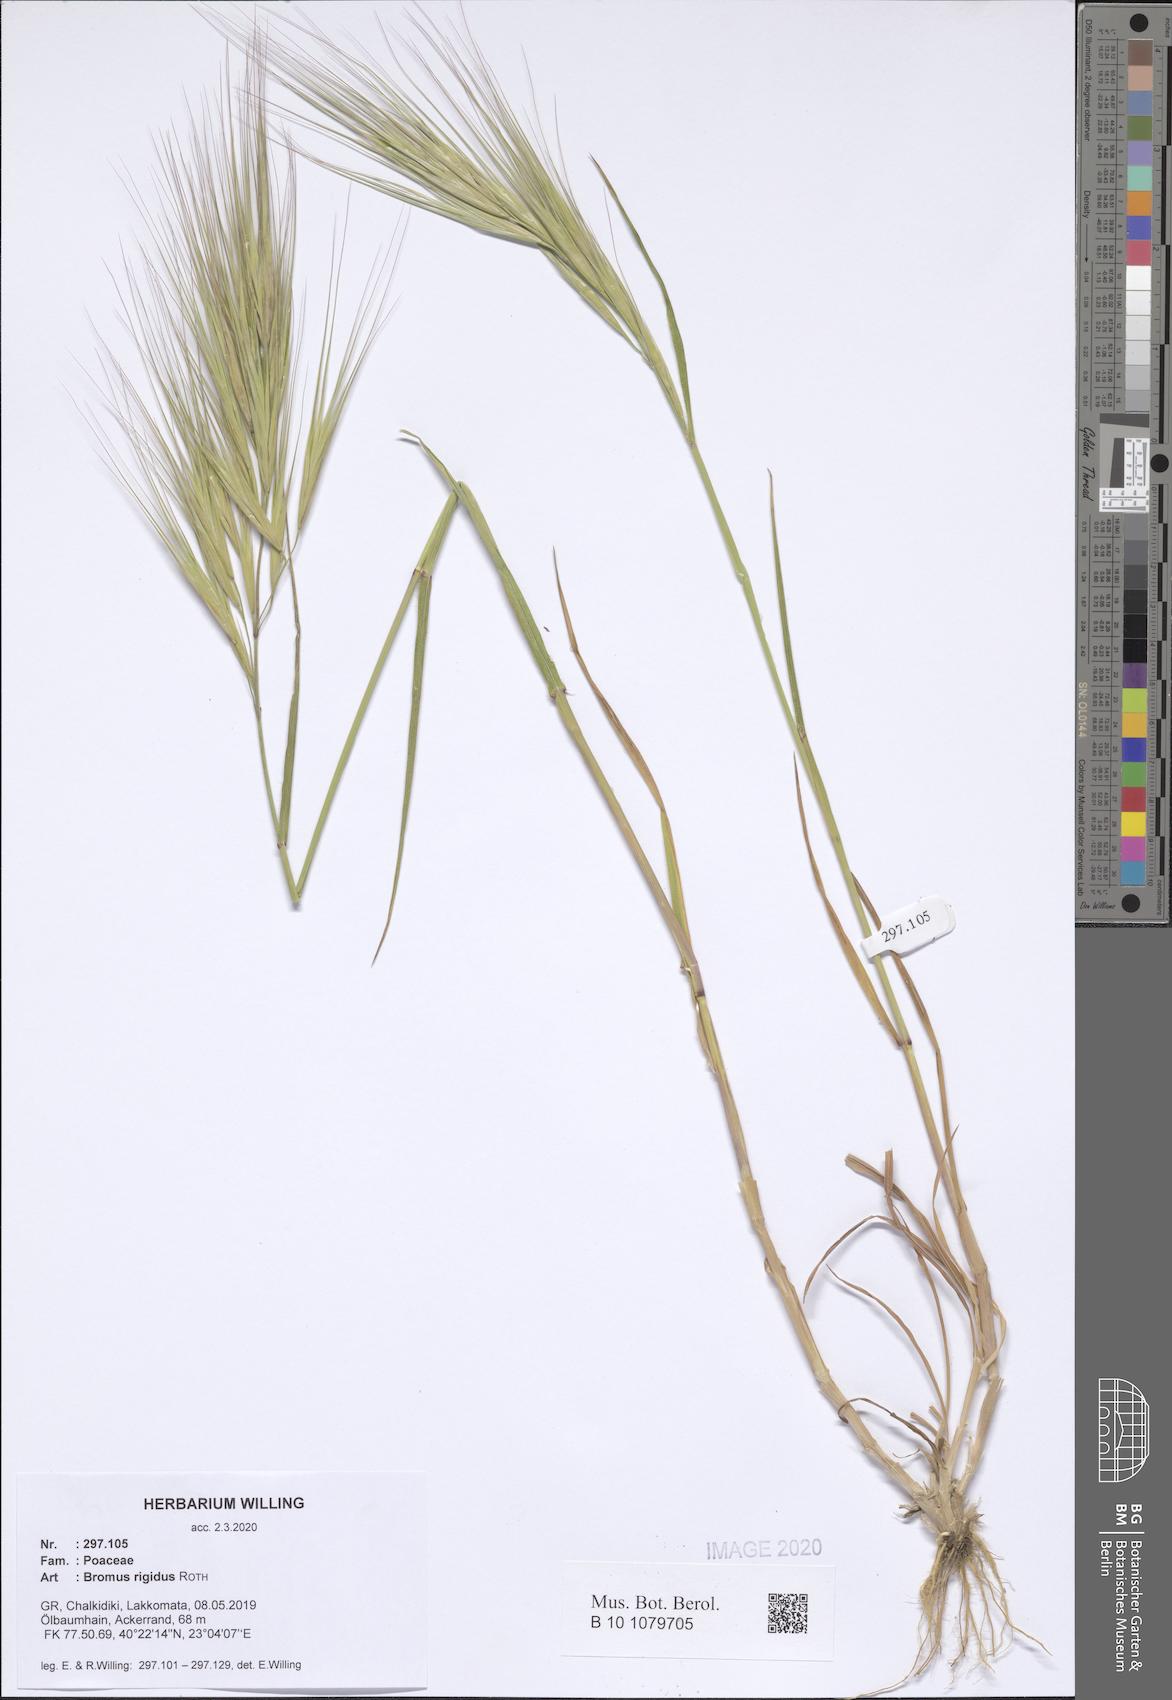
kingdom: Plantae
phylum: Tracheophyta
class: Liliopsida
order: Poales
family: Poaceae
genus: Bromus
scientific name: Bromus rigidus
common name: Ripgut brome
